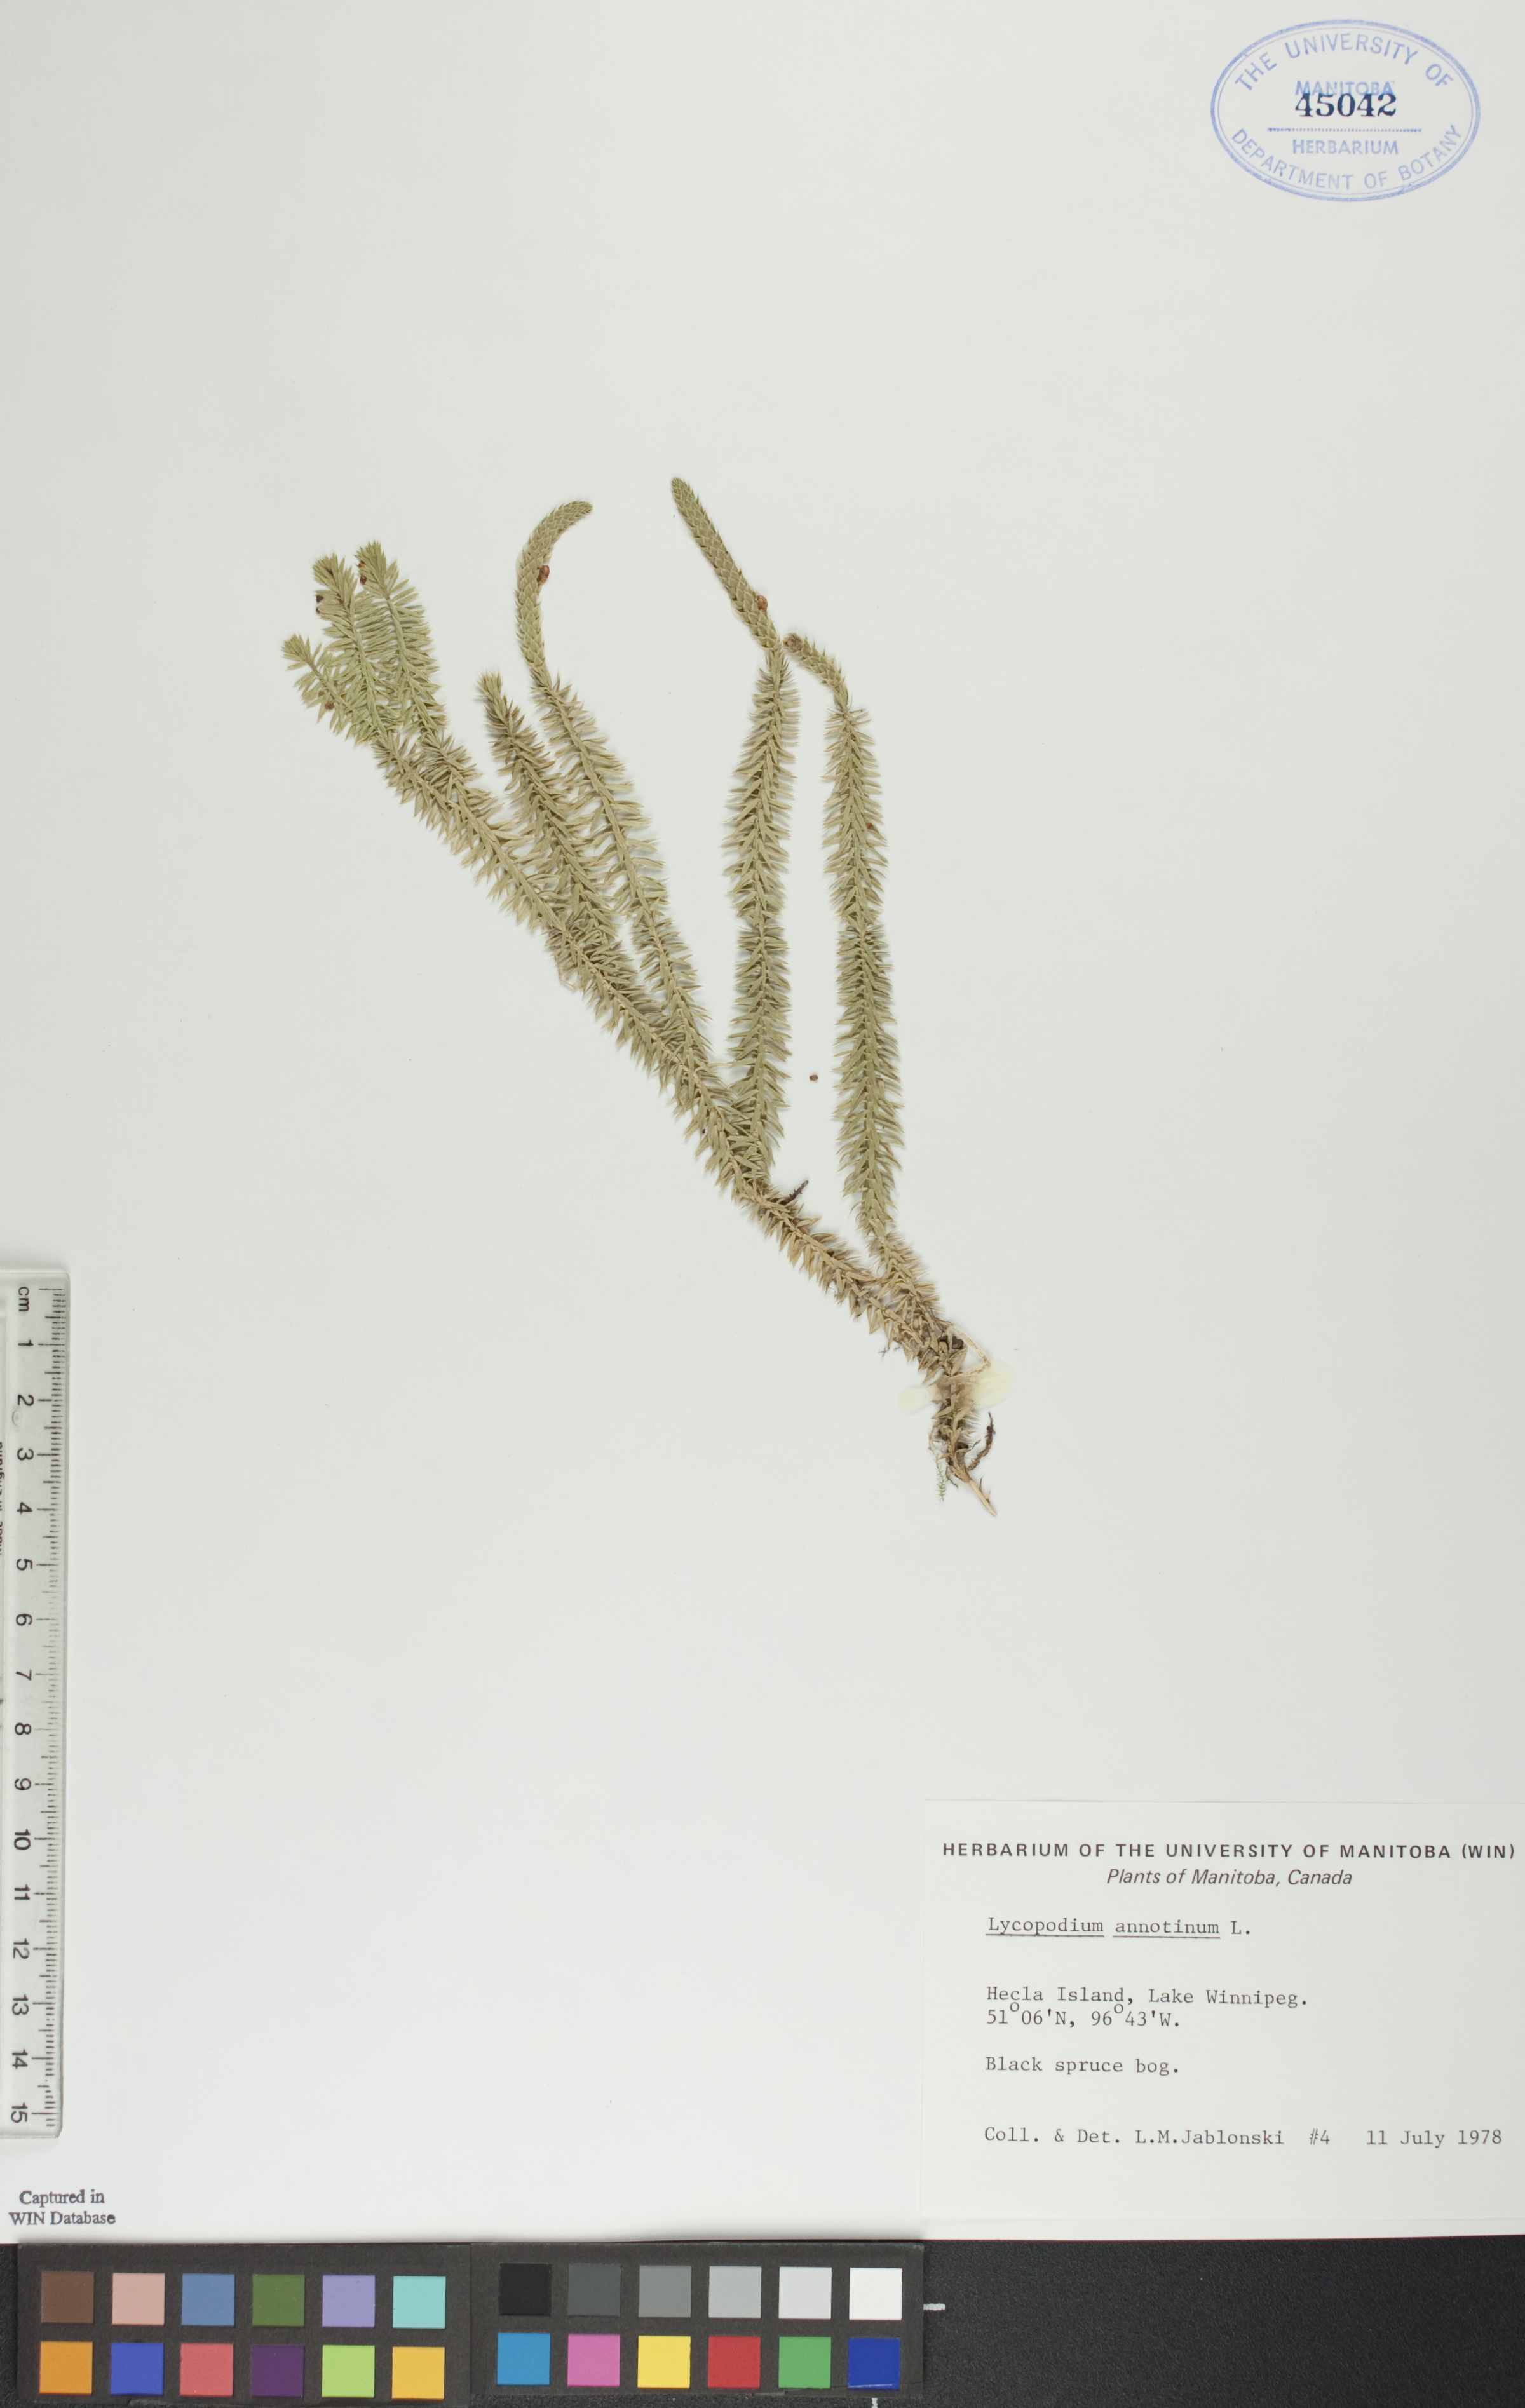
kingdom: Plantae
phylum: Tracheophyta
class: Lycopodiopsida
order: Lycopodiales
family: Lycopodiaceae
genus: Spinulum
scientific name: Spinulum annotinum
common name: Interrupted club-moss
